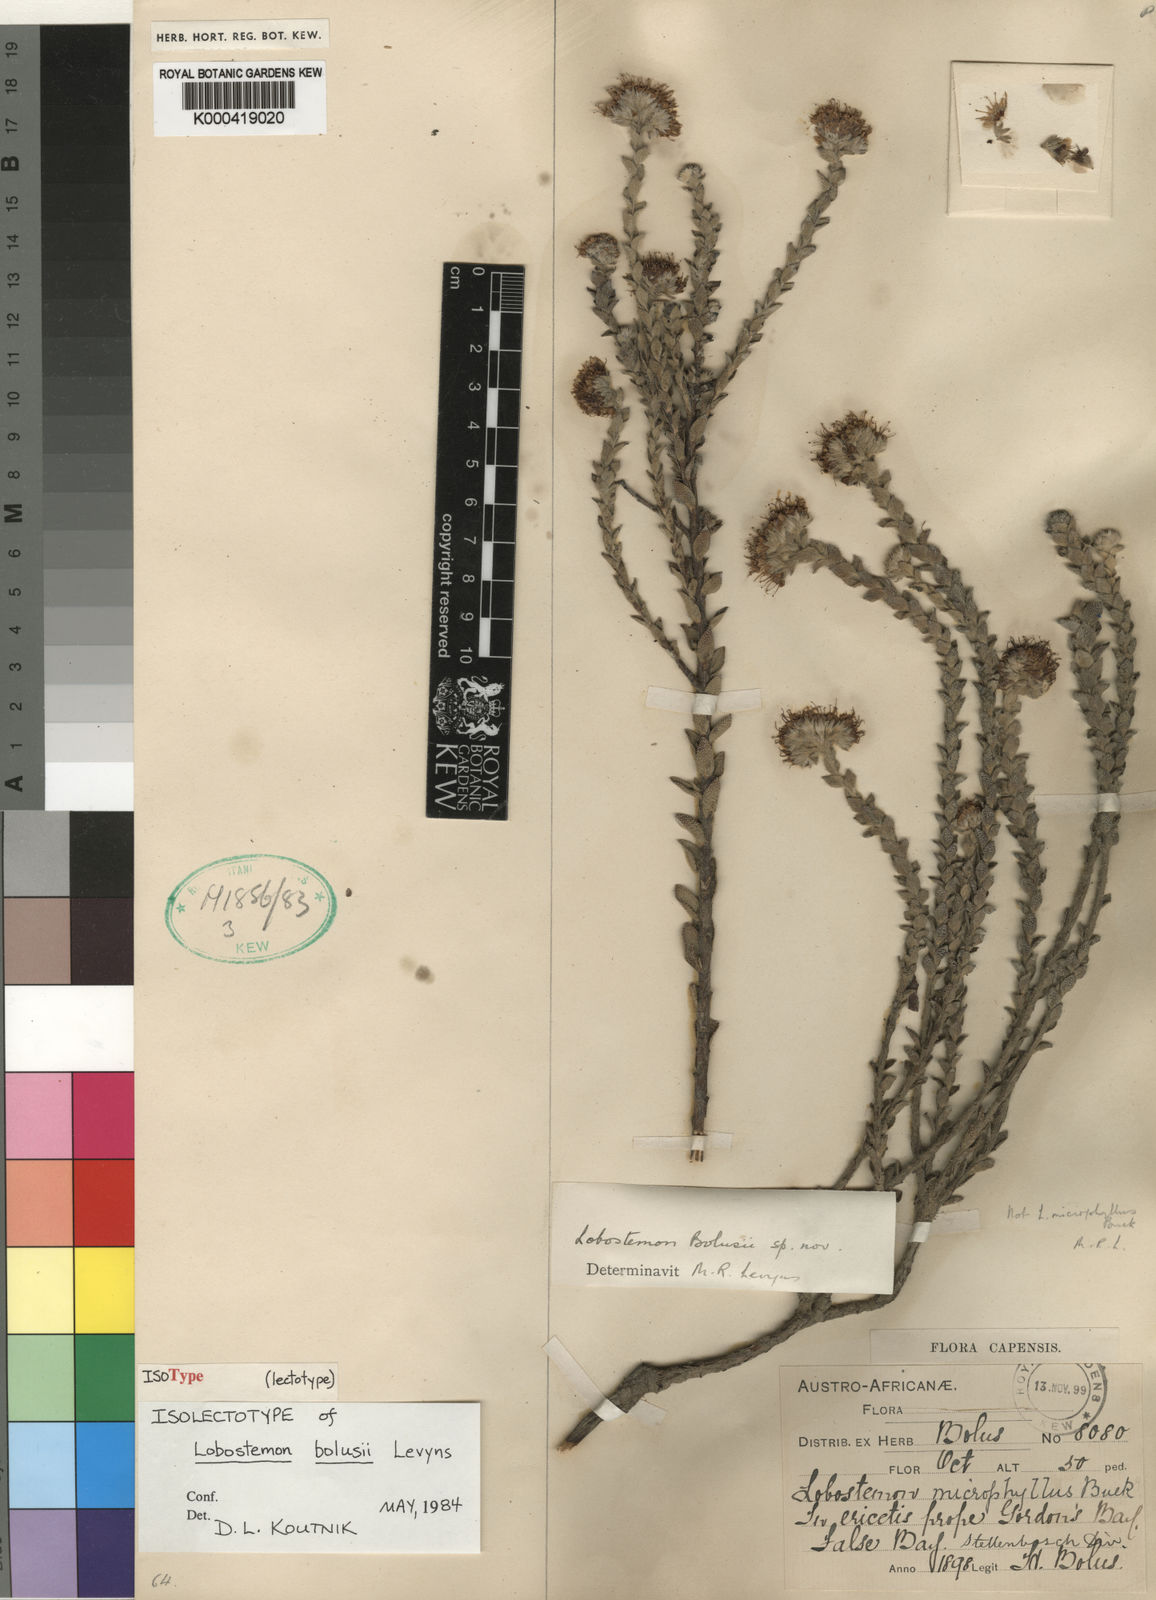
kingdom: Plantae
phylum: Tracheophyta
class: Magnoliopsida
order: Boraginales
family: Boraginaceae
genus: Lobostemon
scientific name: Lobostemon capitatus
